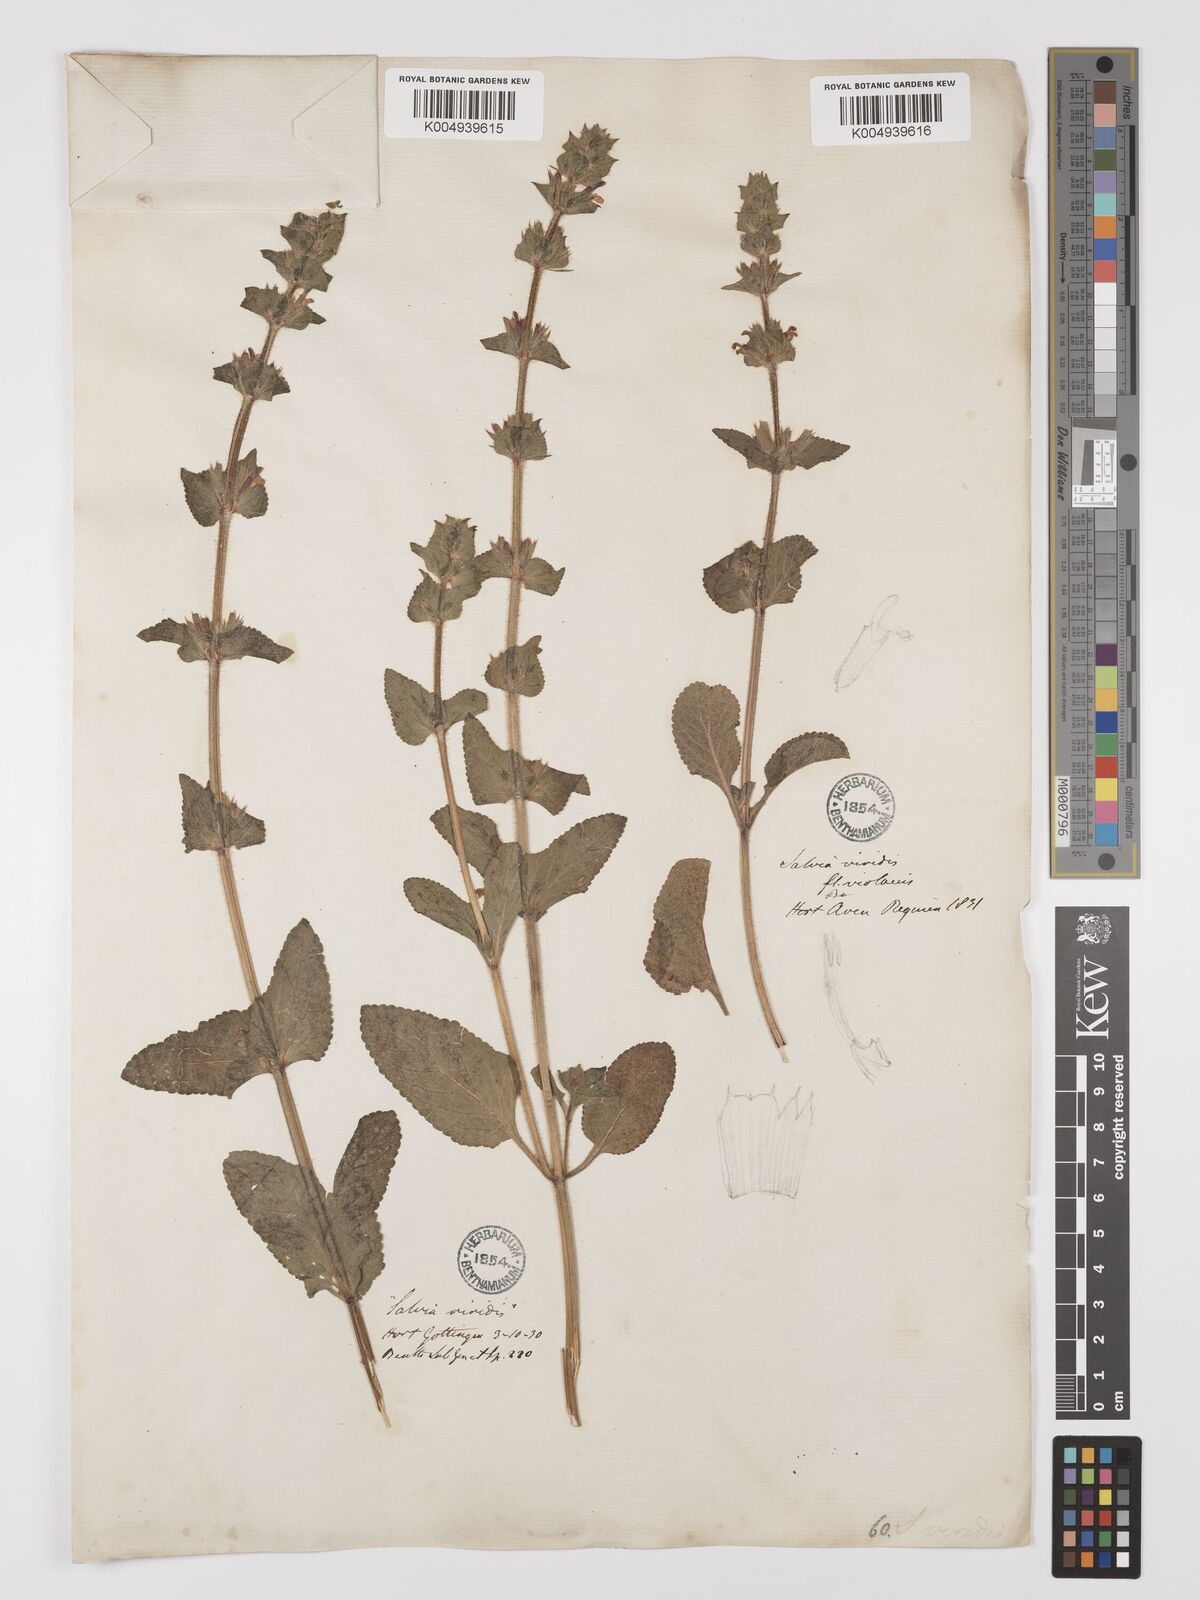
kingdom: Plantae
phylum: Tracheophyta
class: Magnoliopsida
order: Lamiales
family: Lamiaceae
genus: Salvia
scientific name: Salvia viridis
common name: Annual clary
